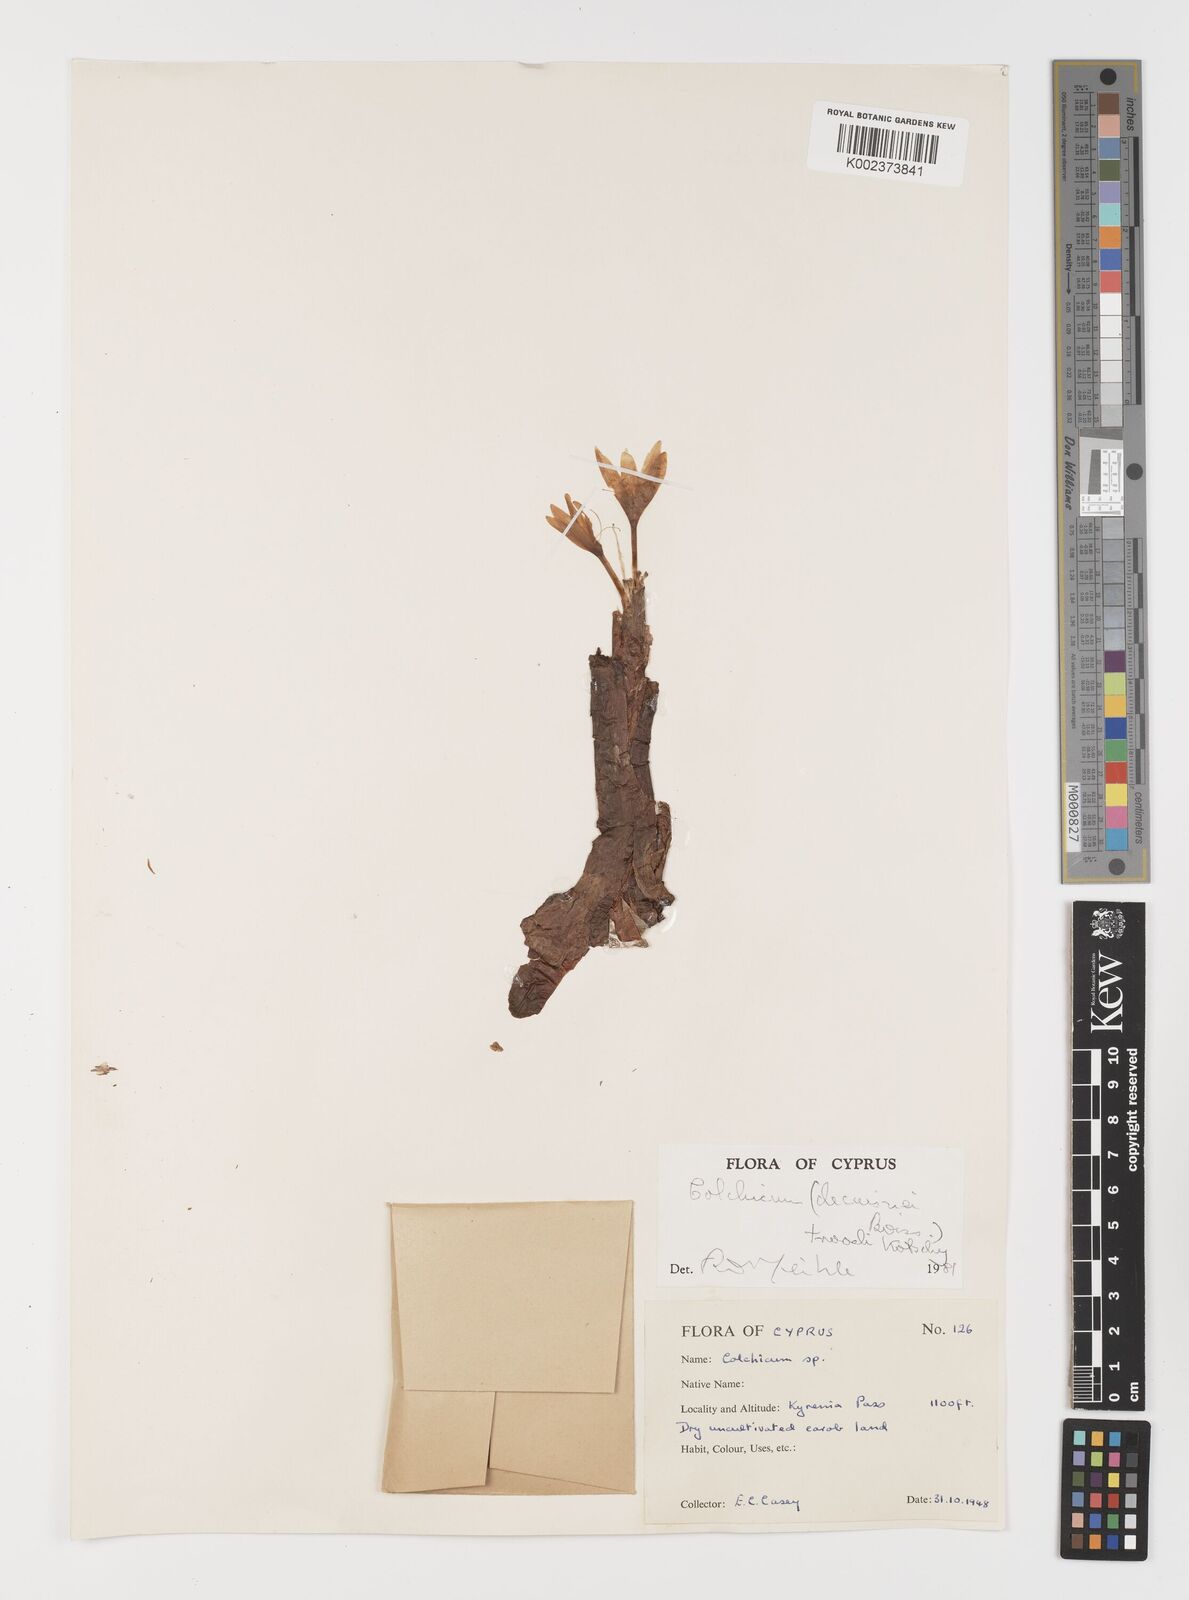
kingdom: Plantae
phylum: Tracheophyta
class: Liliopsida
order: Liliales
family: Colchicaceae
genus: Colchicum
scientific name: Colchicum troodi
